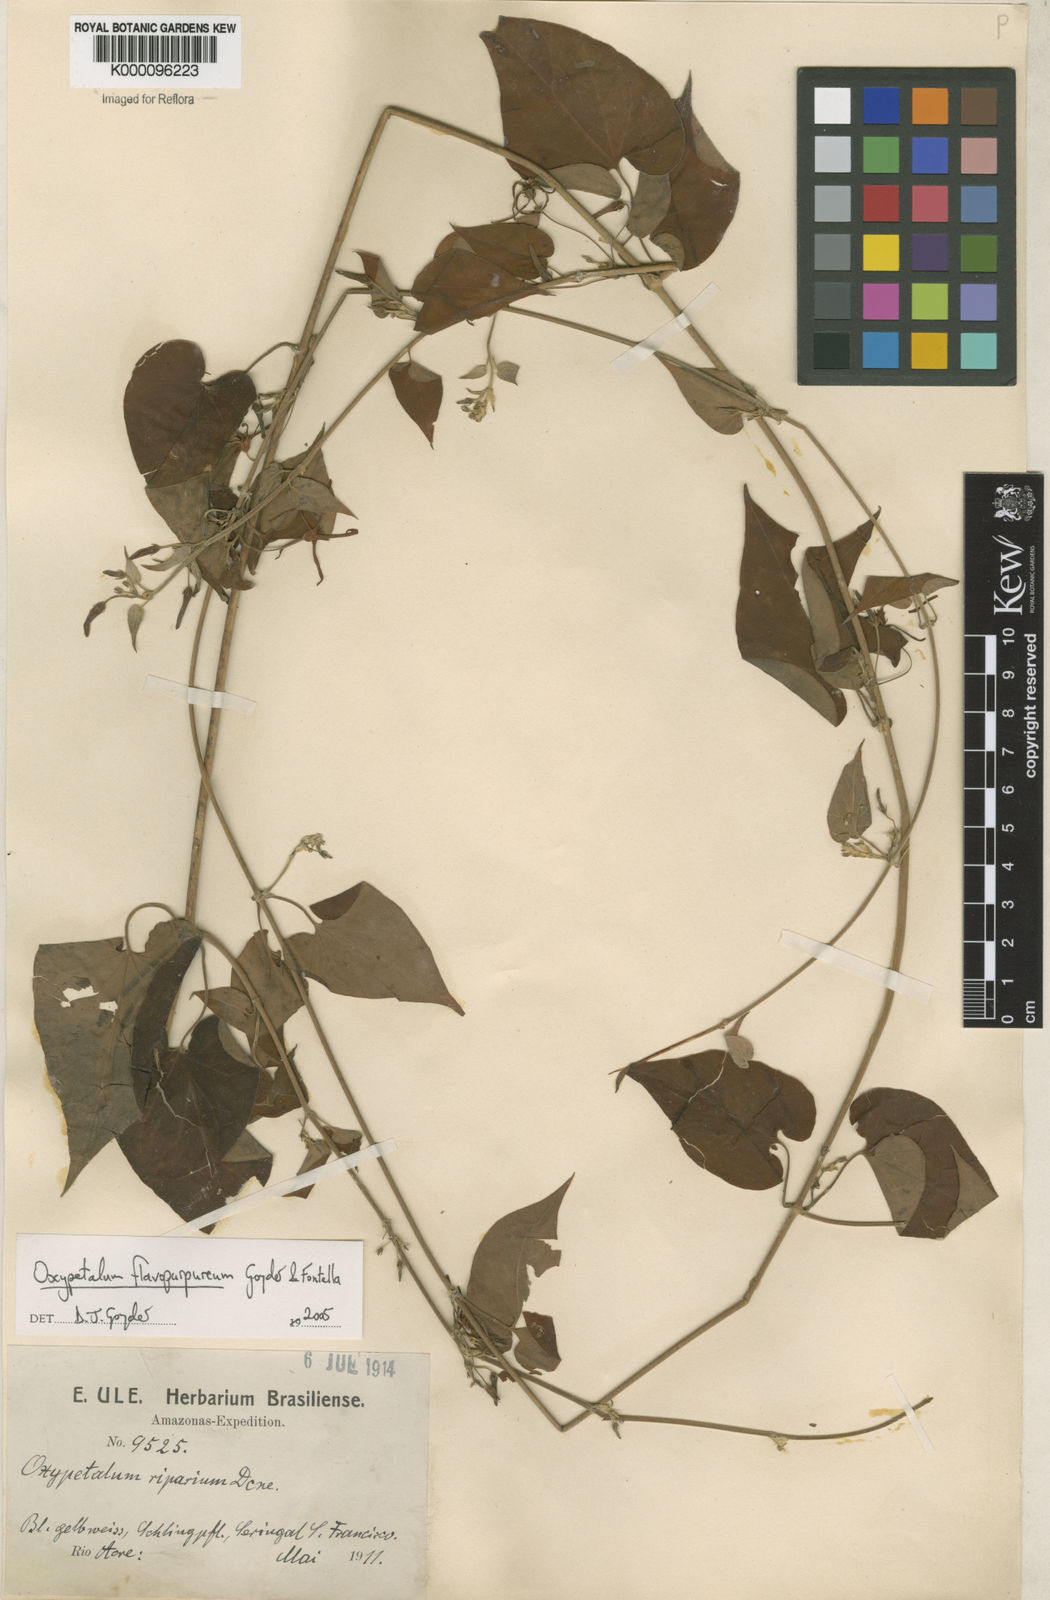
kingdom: Plantae
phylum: Tracheophyta
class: Magnoliopsida
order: Gentianales
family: Apocynaceae
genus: Oxypetalum
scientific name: Oxypetalum flavopurpureum
